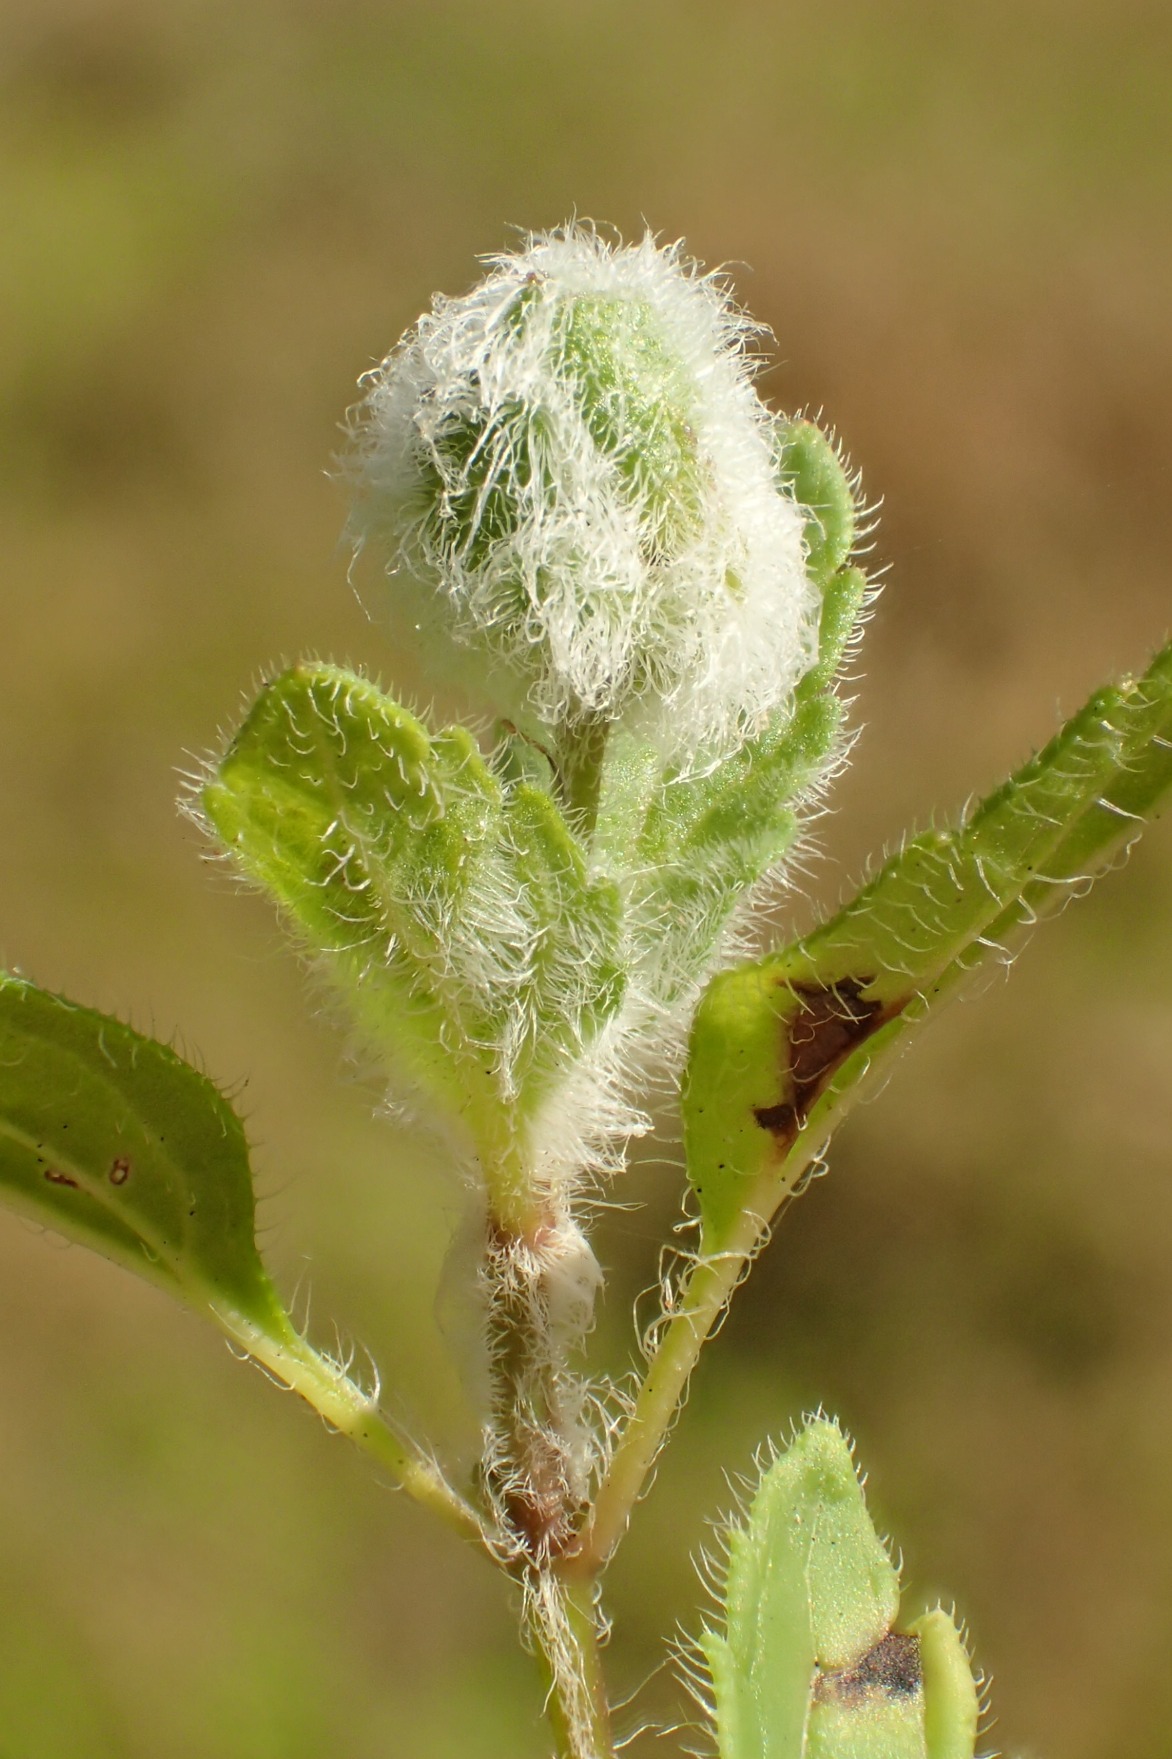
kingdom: Animalia
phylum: Arthropoda
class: Insecta
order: Diptera
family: Cecidomyiidae
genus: Jaapiella
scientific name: Jaapiella veronicae
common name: Ærenprisgalmyg
